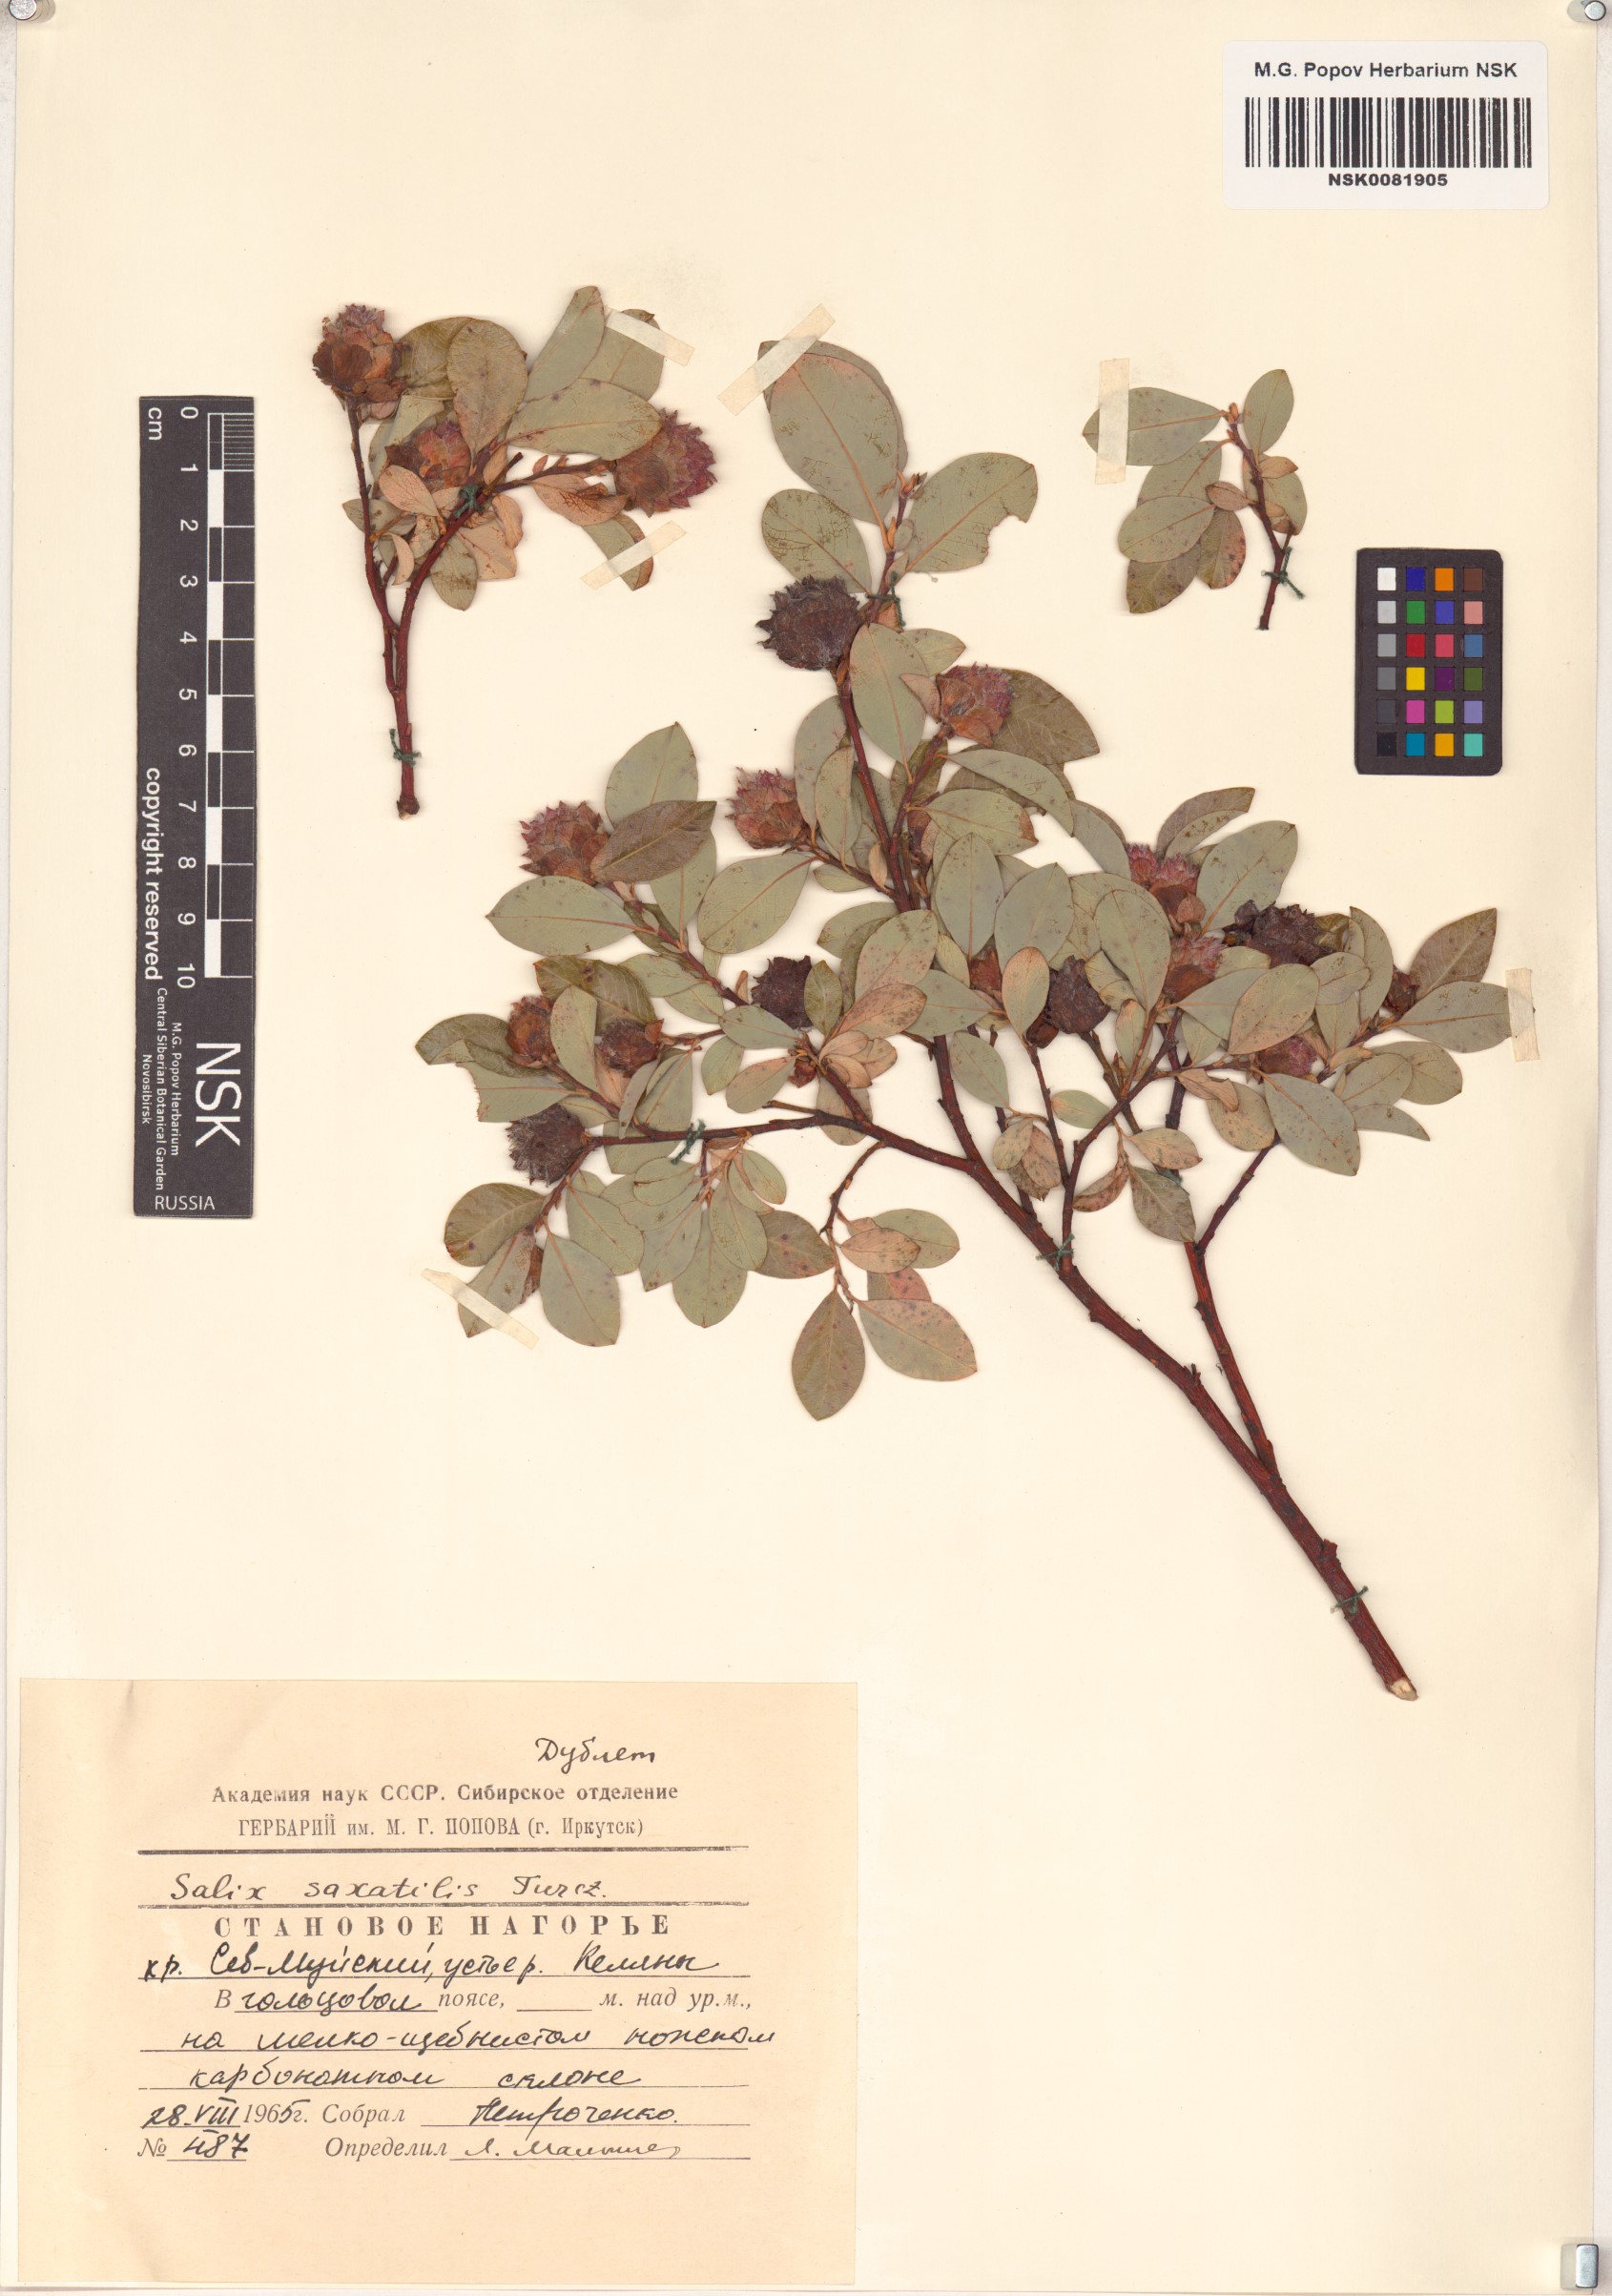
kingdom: Plantae
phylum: Tracheophyta
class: Magnoliopsida
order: Malpighiales
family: Salicaceae
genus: Salix
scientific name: Salix saxatilis
